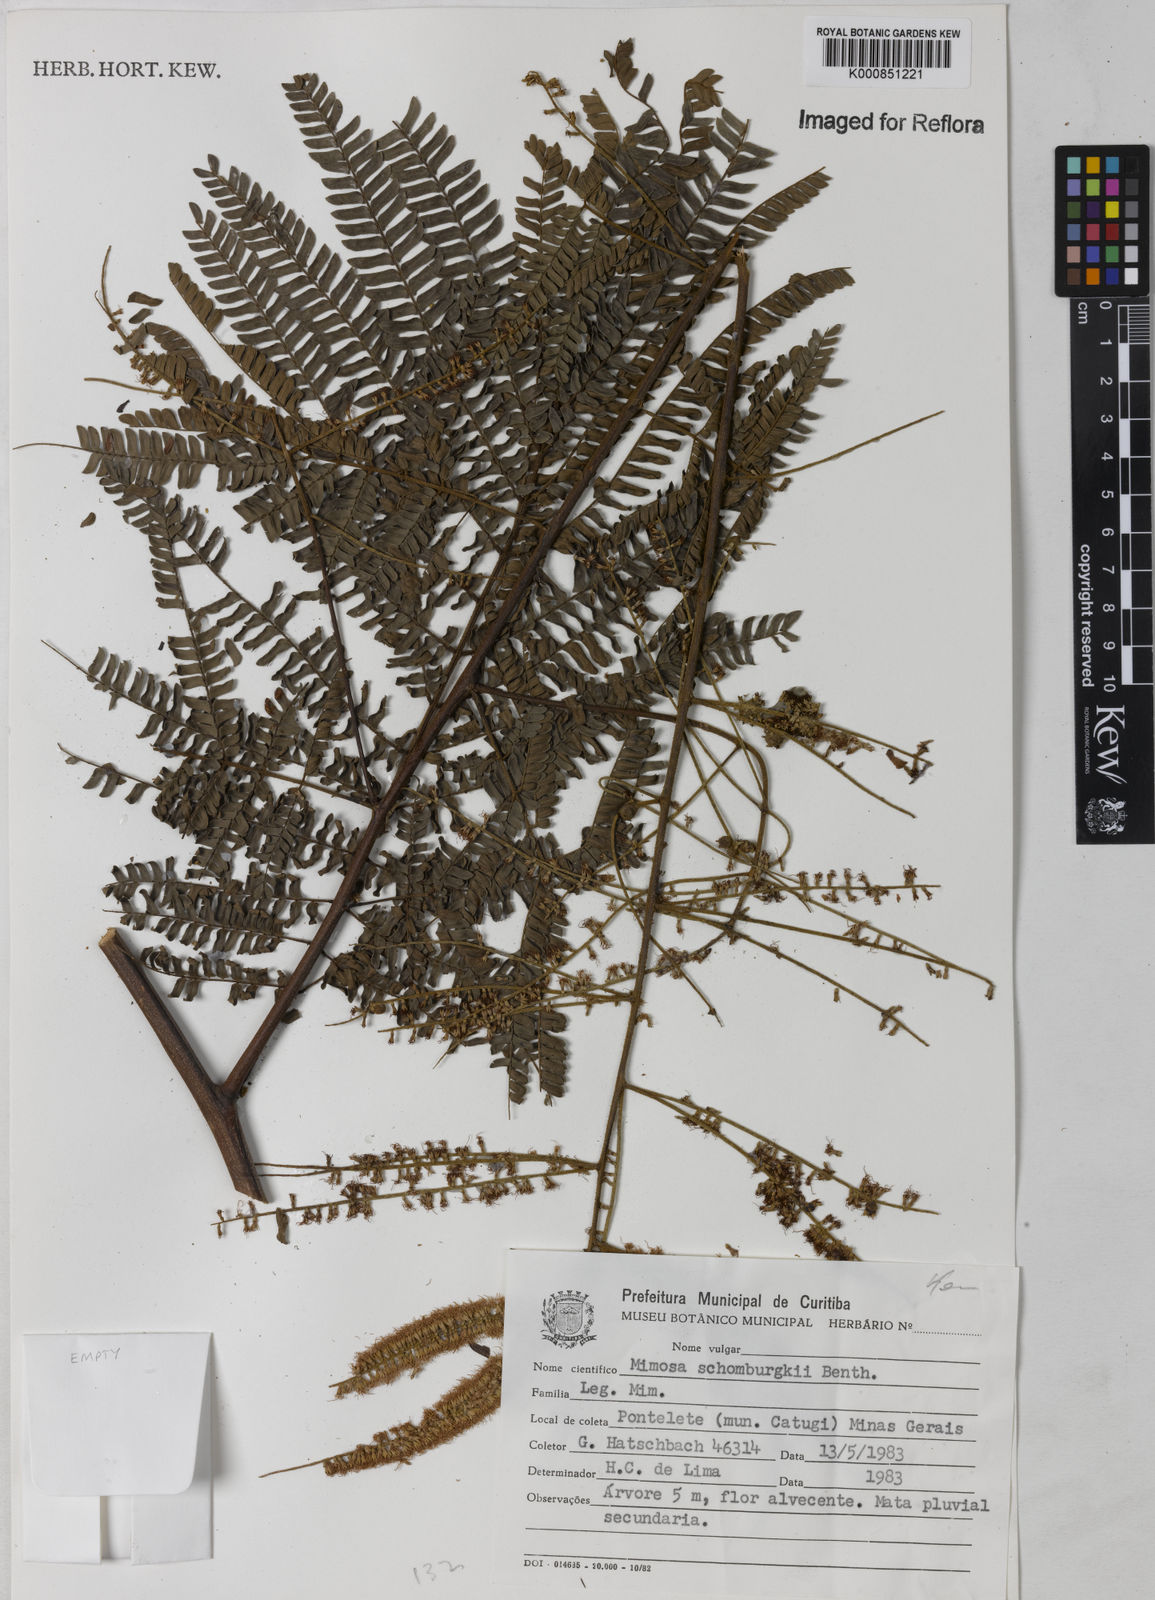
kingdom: Plantae
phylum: Tracheophyta
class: Magnoliopsida
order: Fabales
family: Fabaceae
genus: Mimosa
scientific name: Mimosa schomburgkii
